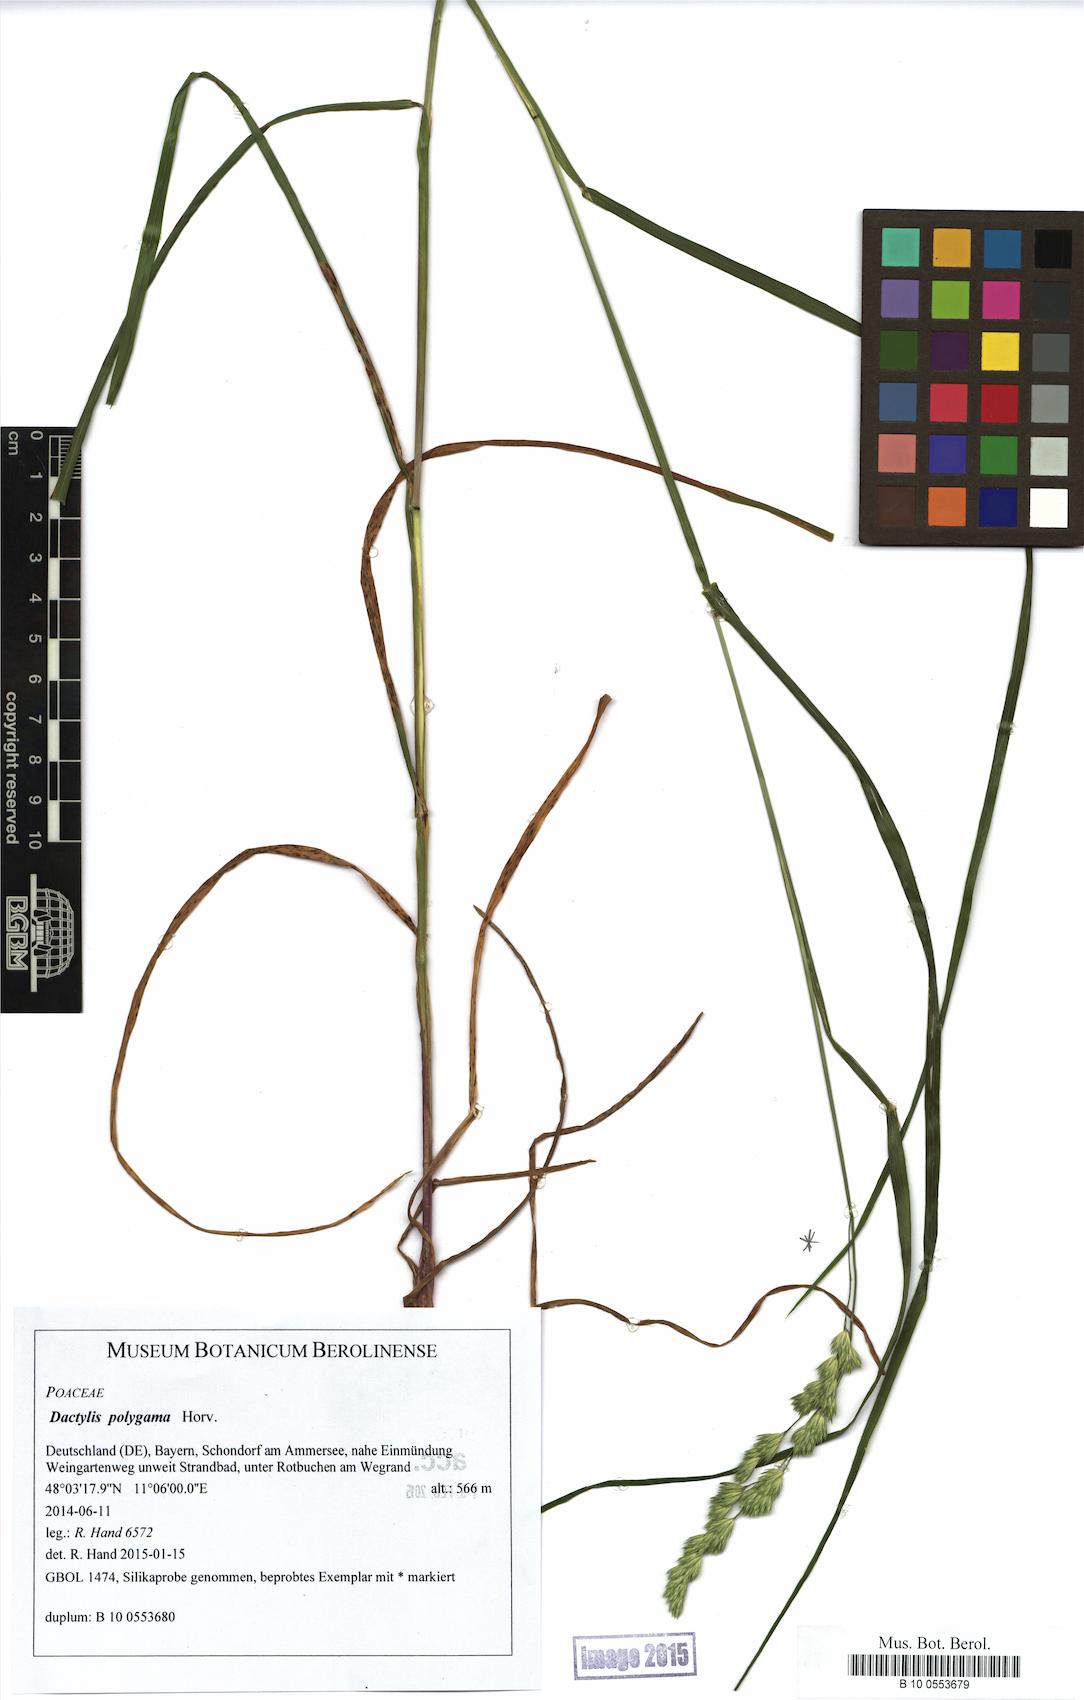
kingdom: Plantae
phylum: Tracheophyta
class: Liliopsida
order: Poales
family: Poaceae
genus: Dactylis
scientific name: Dactylis glomerata
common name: Orchardgrass
